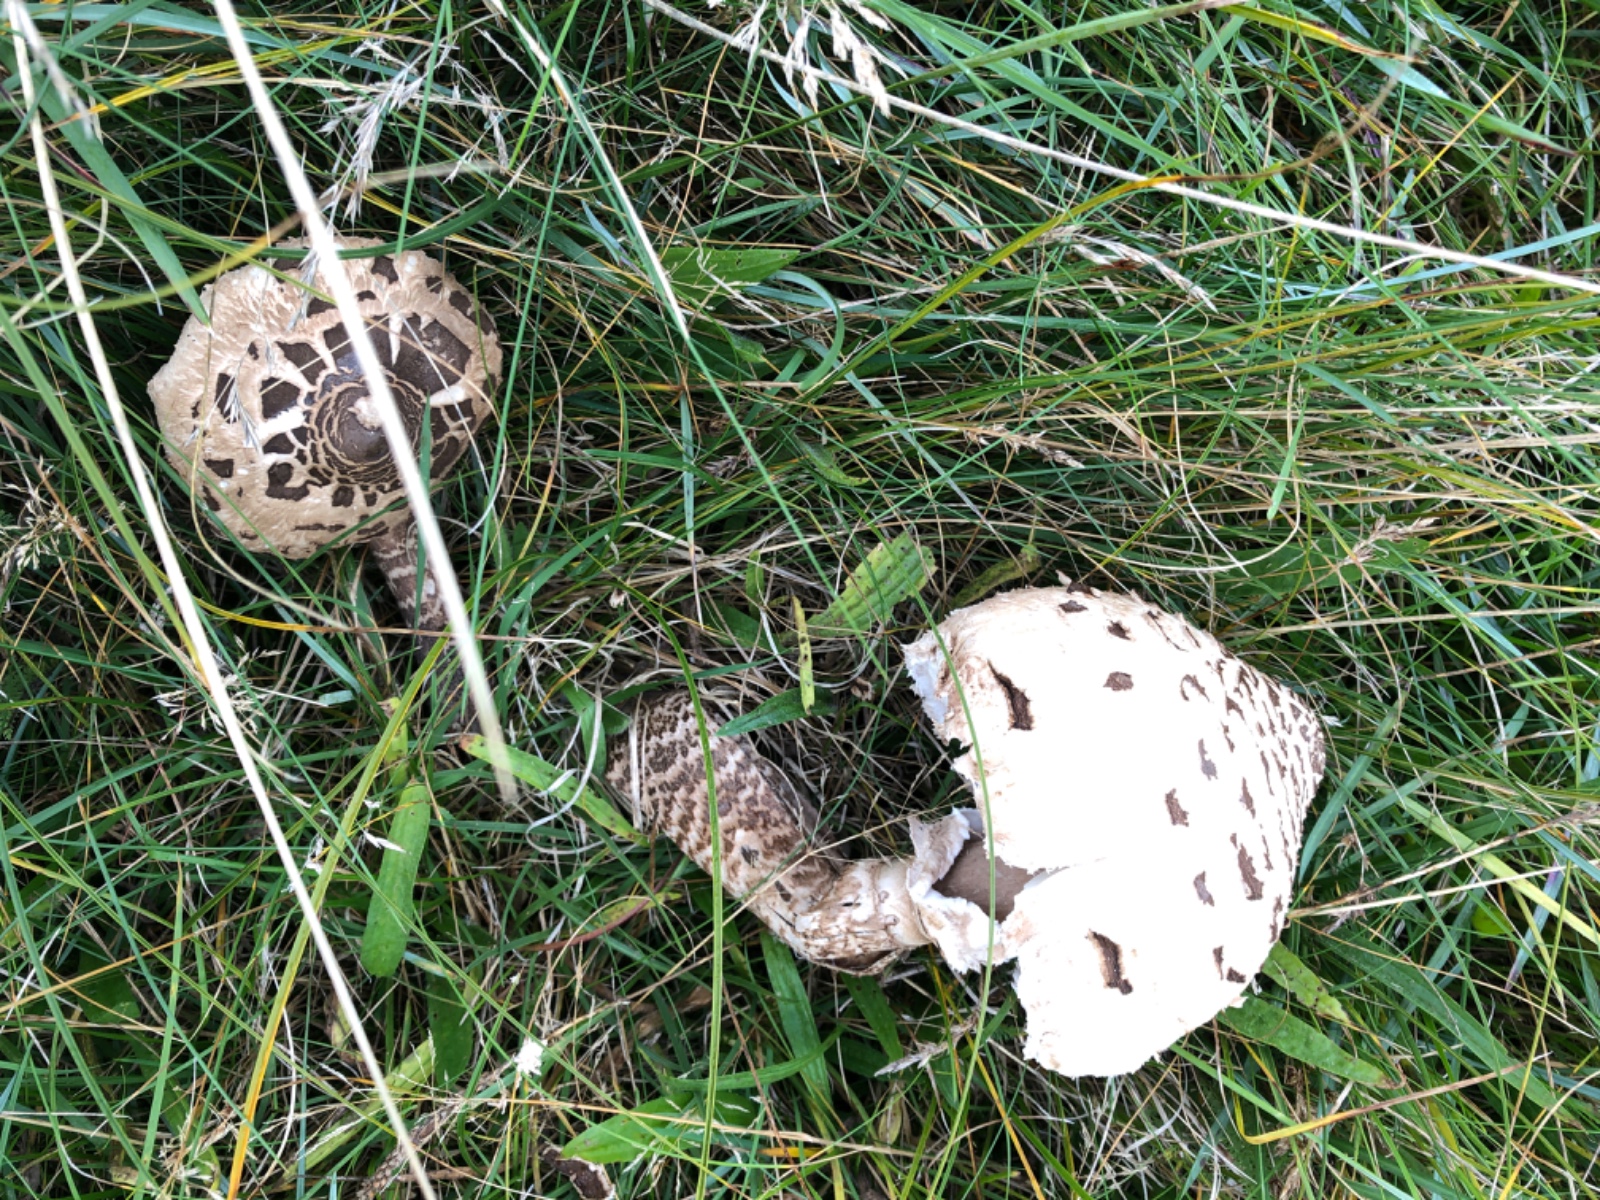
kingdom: Fungi
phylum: Basidiomycota
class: Agaricomycetes
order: Agaricales
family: Agaricaceae
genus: Macrolepiota
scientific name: Macrolepiota procera
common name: stor kæmpeparasolhat
